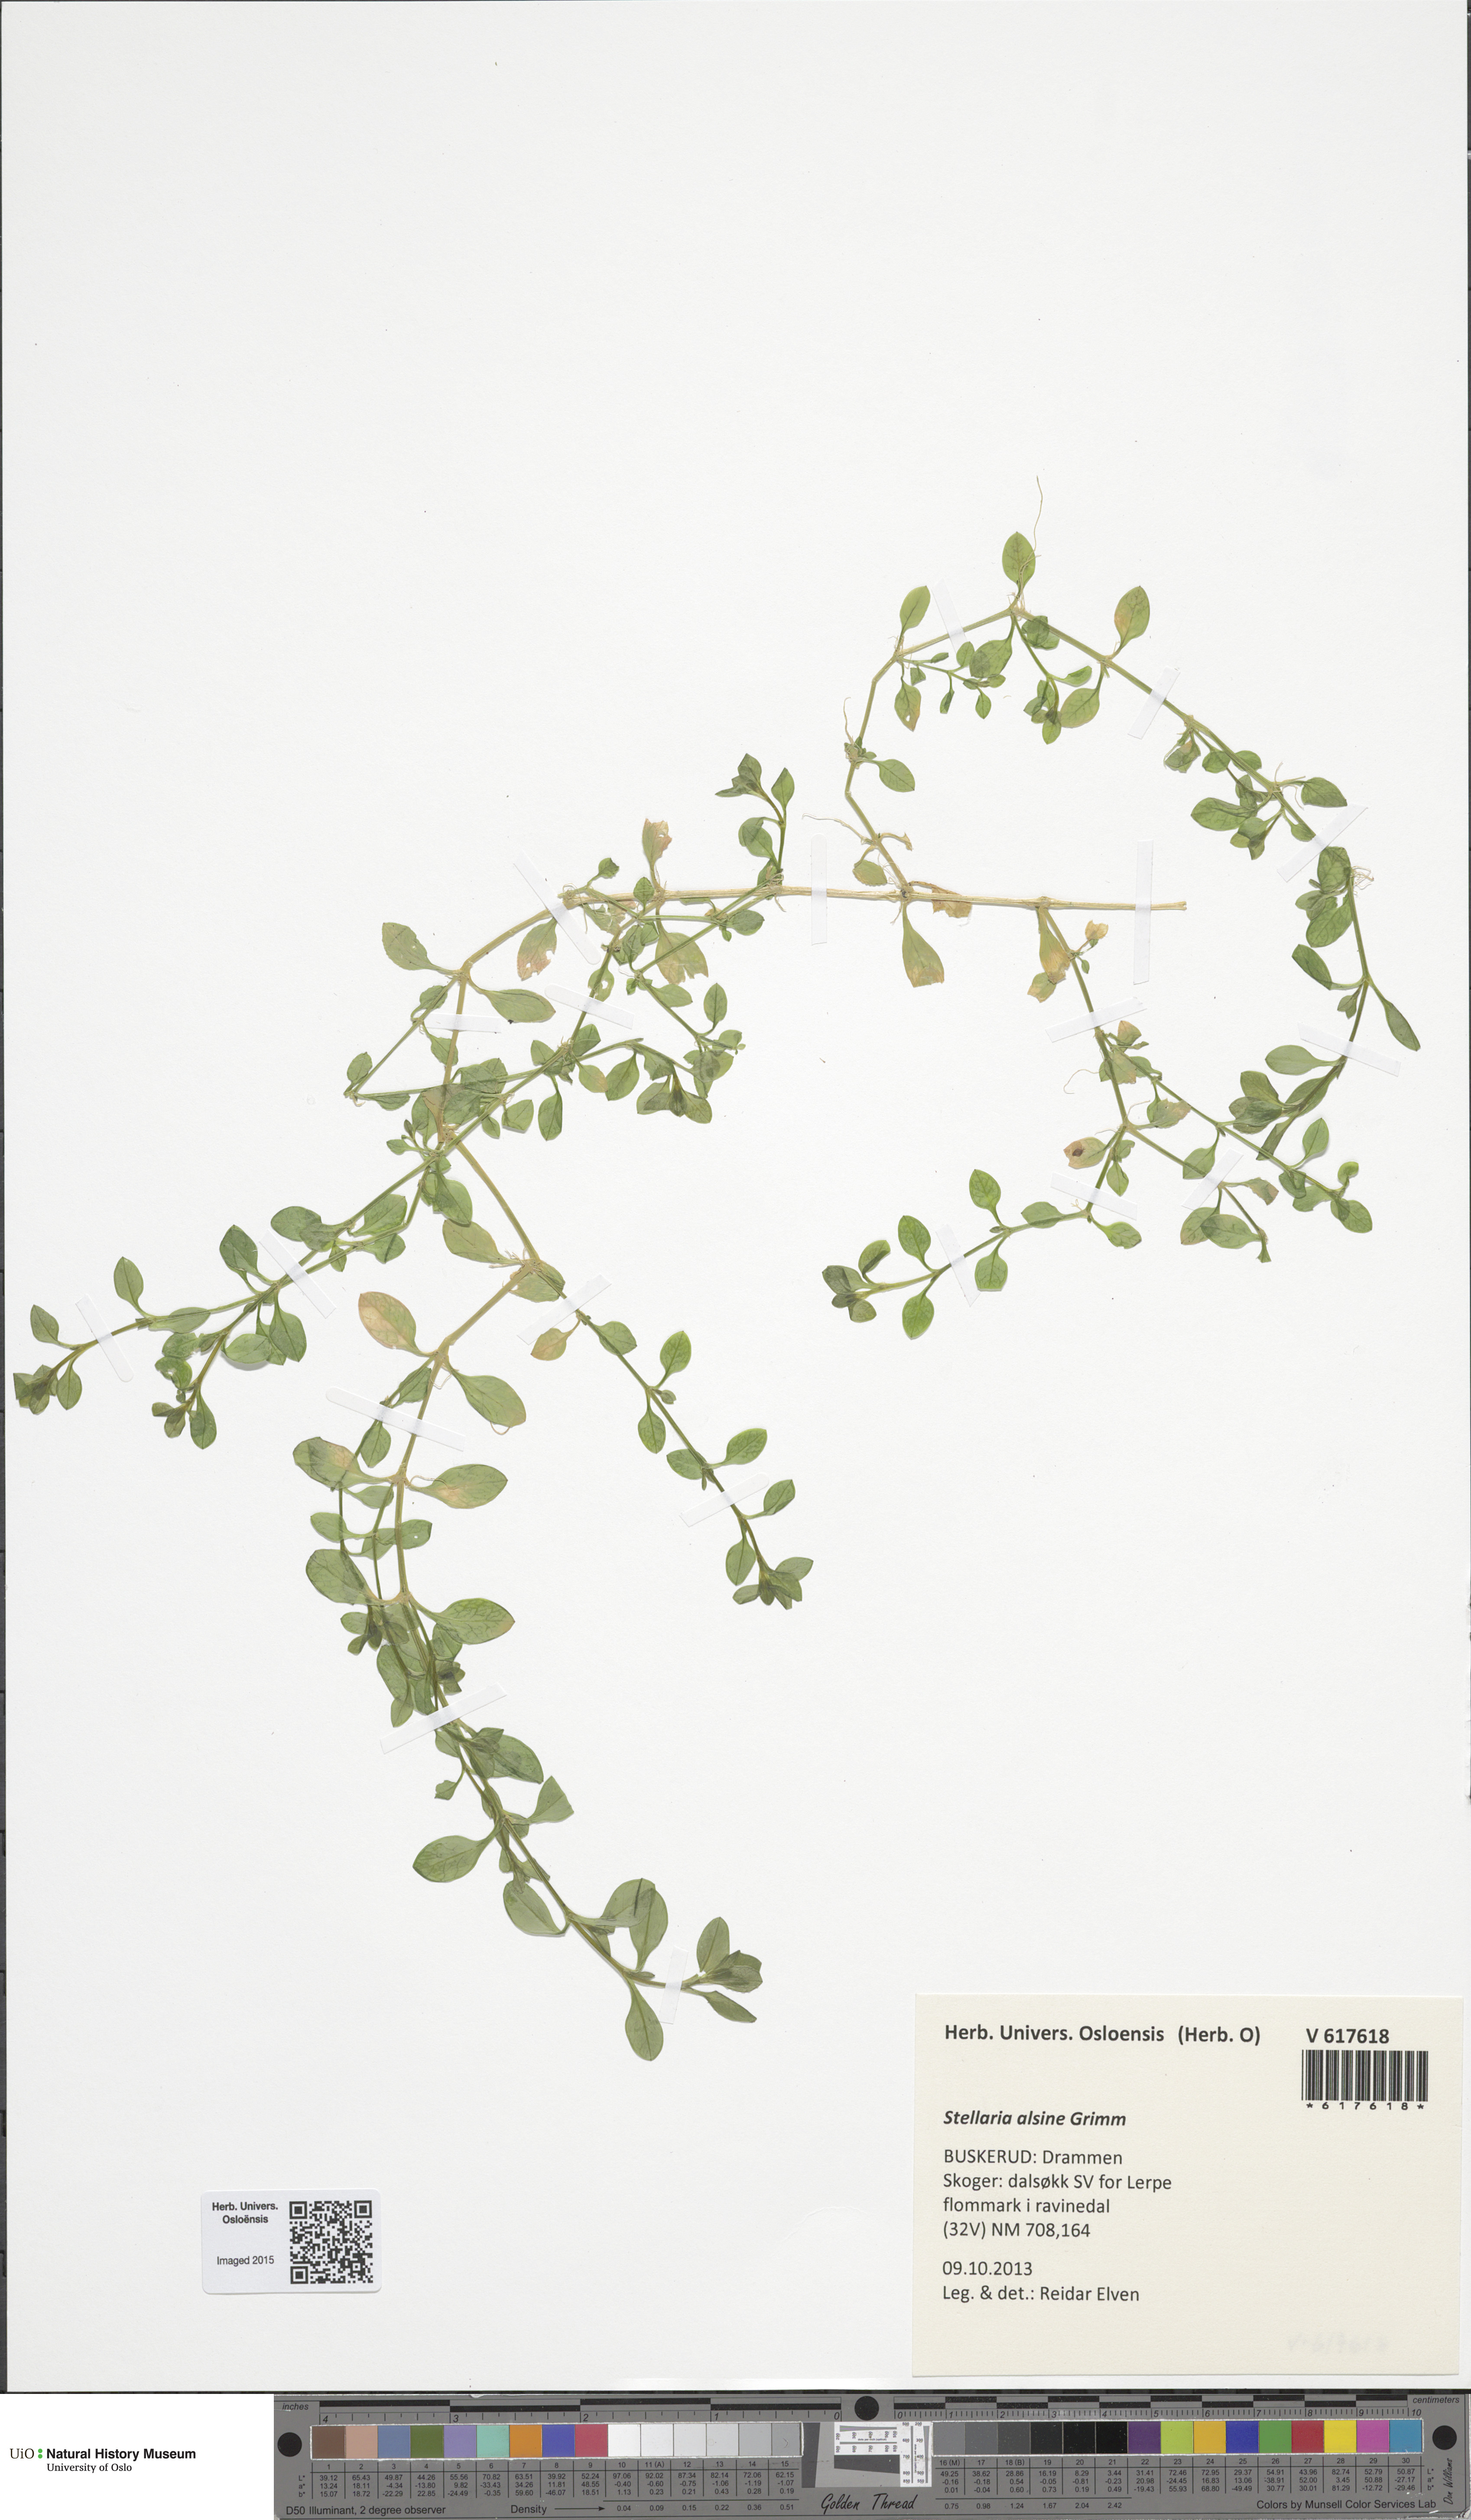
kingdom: Plantae
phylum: Tracheophyta
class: Magnoliopsida
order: Caryophyllales
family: Caryophyllaceae
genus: Stellaria
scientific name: Stellaria alsine
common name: Bog stitchwort
